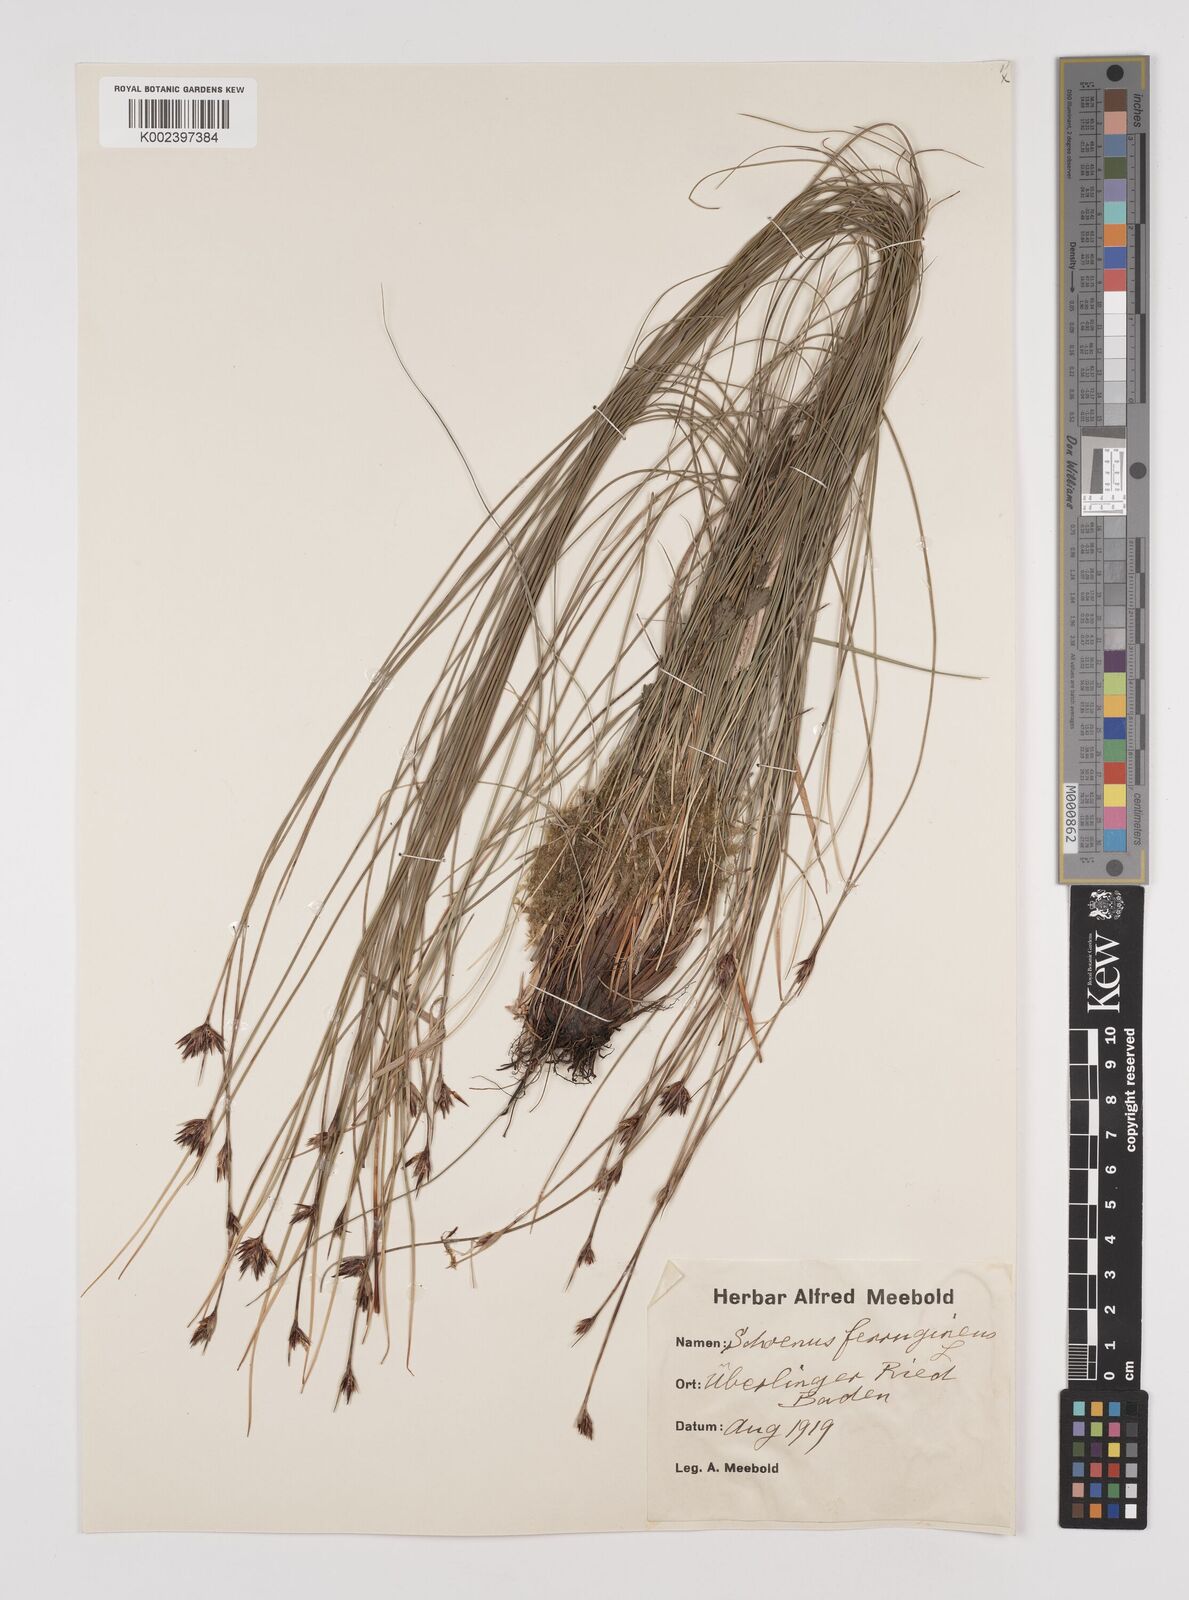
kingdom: Plantae
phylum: Tracheophyta
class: Liliopsida
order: Poales
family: Cyperaceae
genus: Schoenus
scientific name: Schoenus ferrugineus
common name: Brown bog-rush
